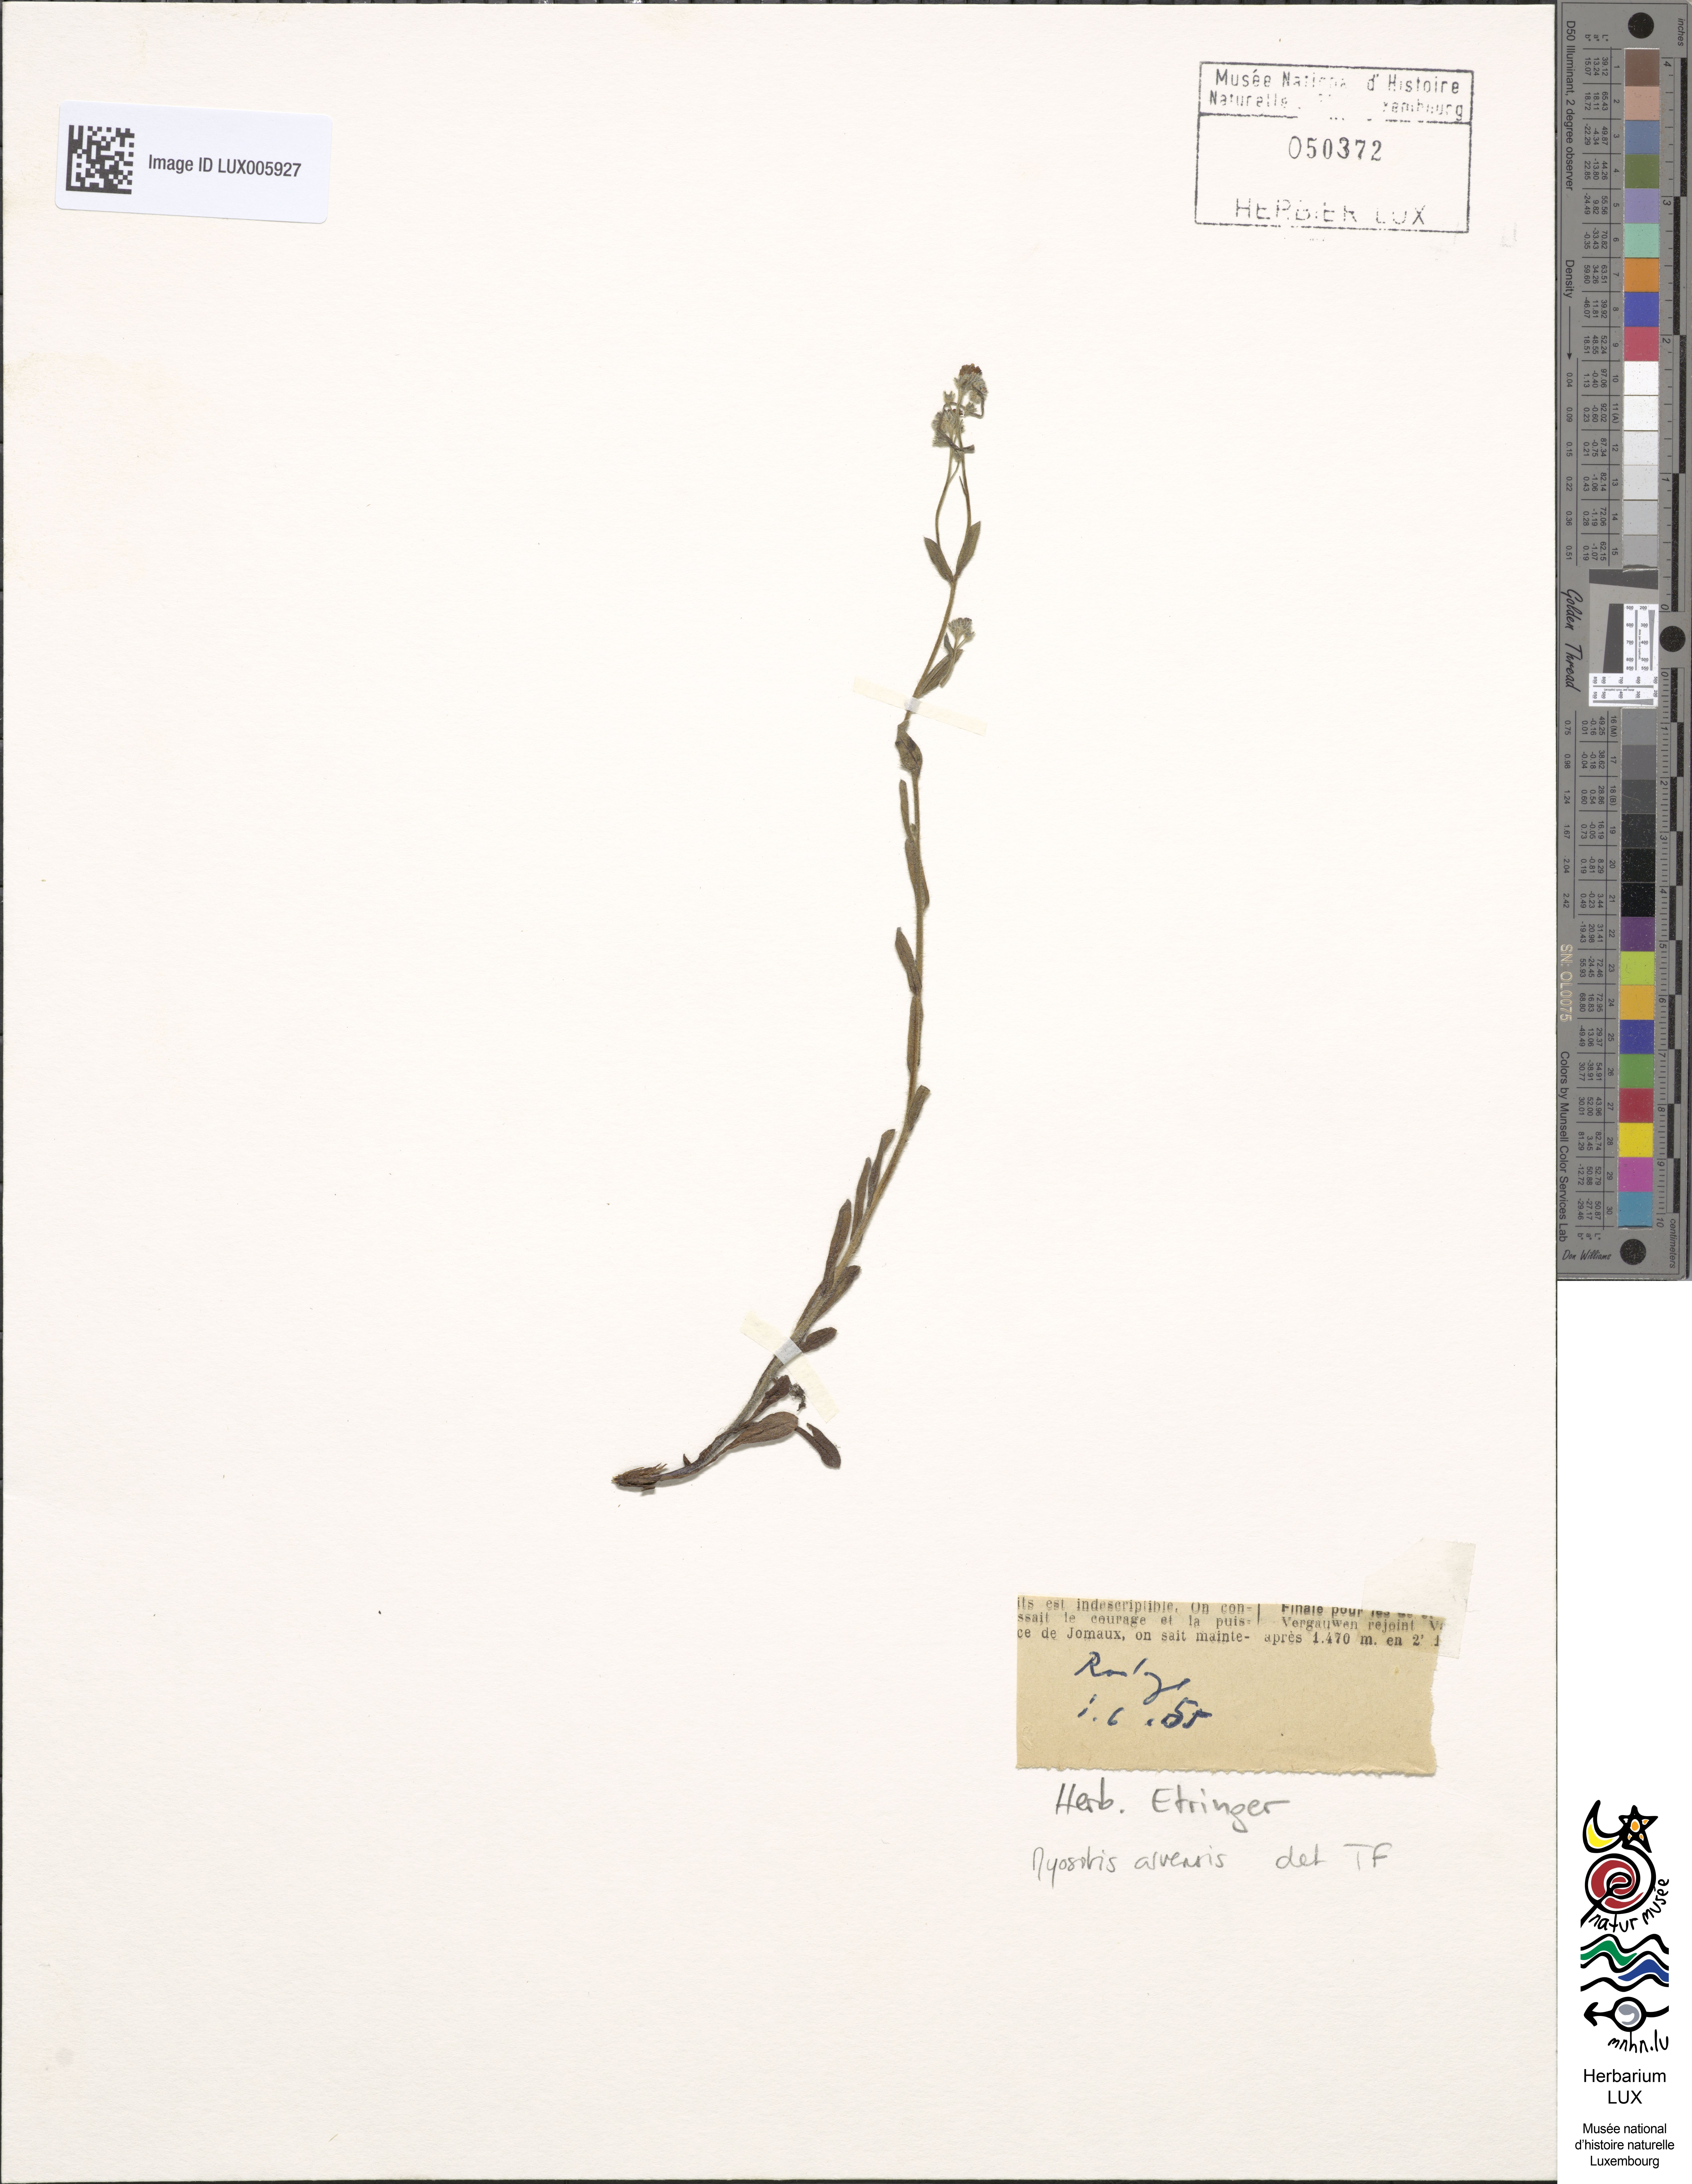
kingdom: Plantae
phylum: Tracheophyta
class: Magnoliopsida
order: Boraginales
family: Boraginaceae
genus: Myosotis
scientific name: Myosotis arvensis
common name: Field forget-me-not
